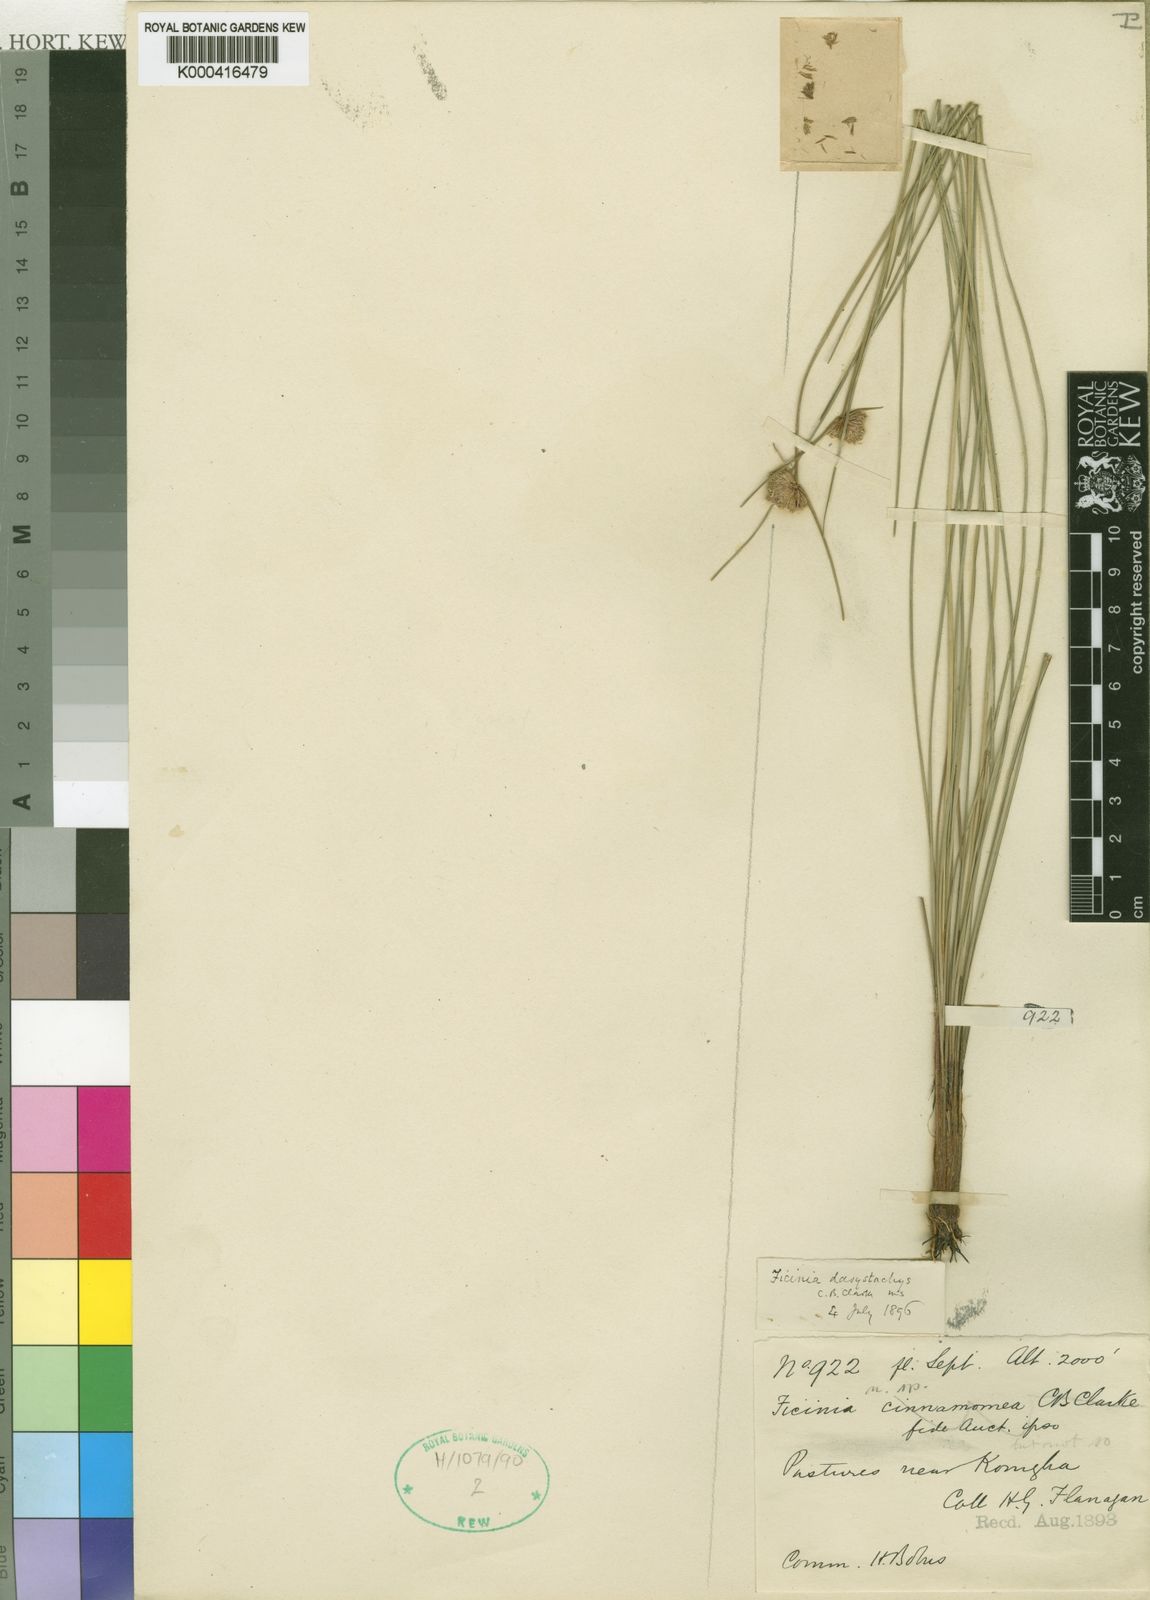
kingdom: Plantae
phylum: Tracheophyta
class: Liliopsida
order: Poales
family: Cyperaceae
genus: Ficinia
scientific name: Ficinia dasystachys
